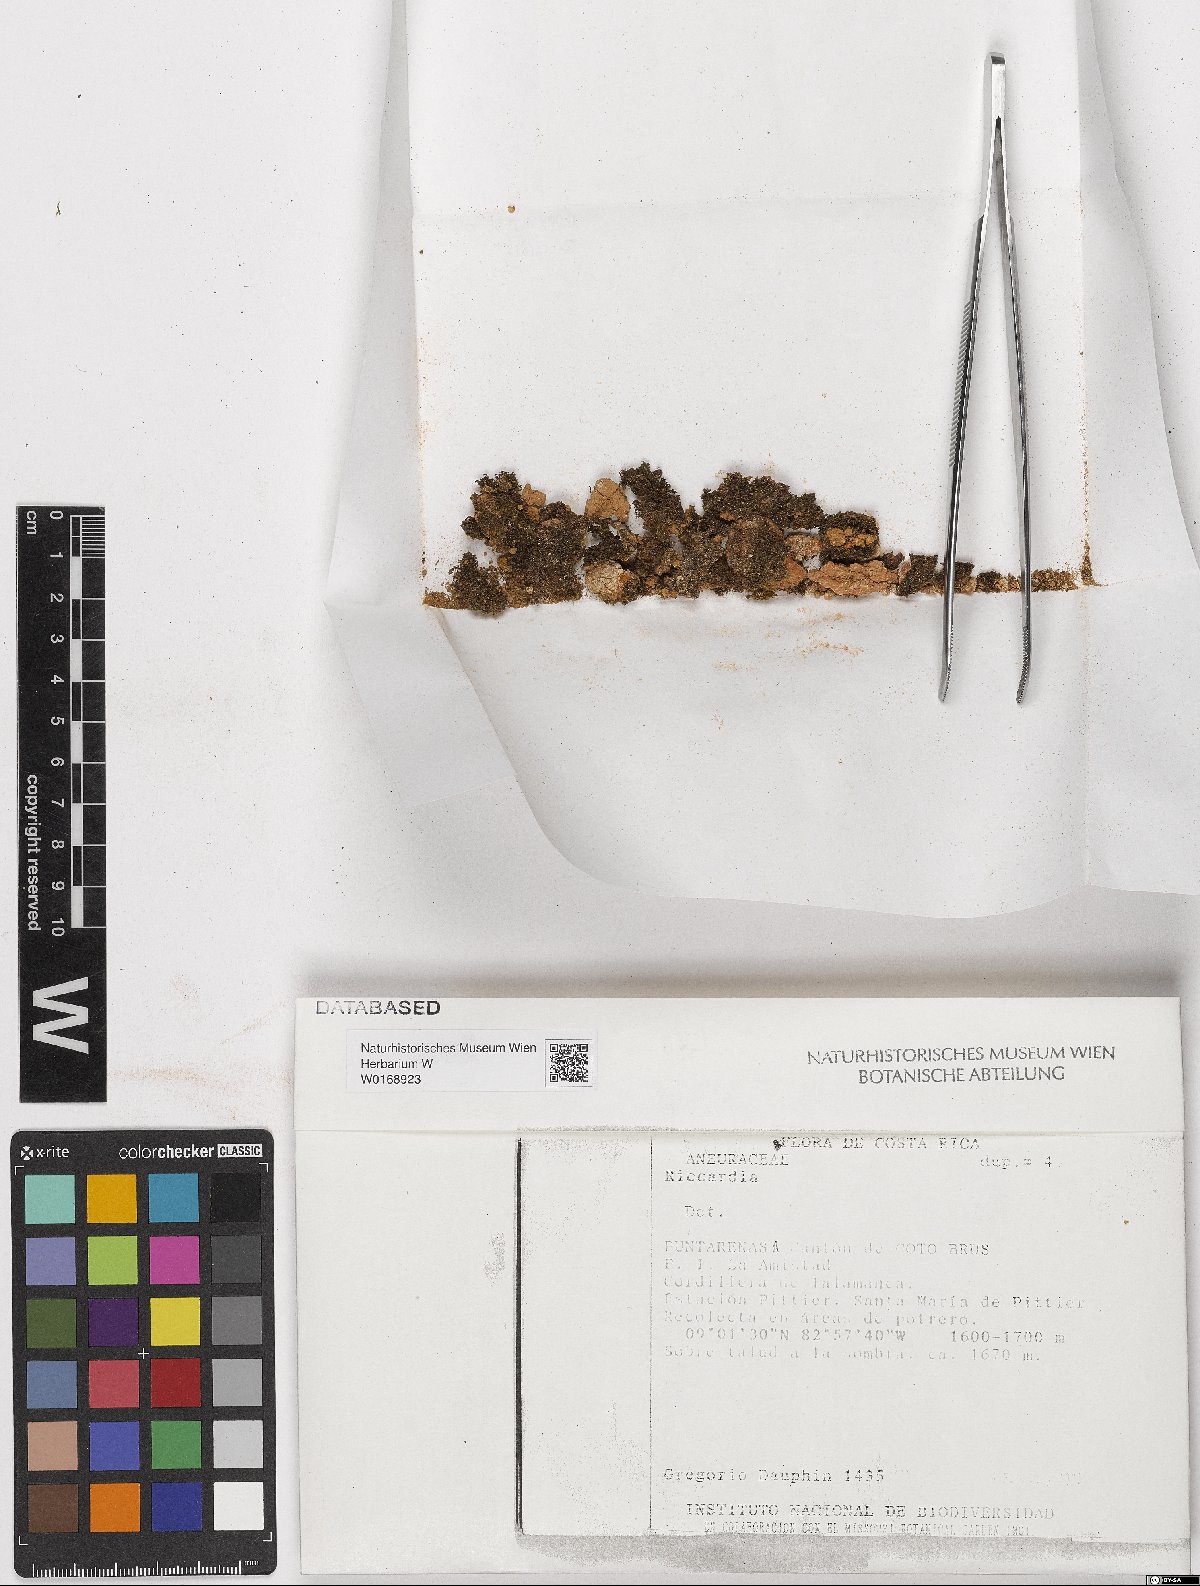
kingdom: Plantae
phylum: Marchantiophyta
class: Jungermanniopsida
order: Metzgeriales
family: Aneuraceae
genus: Riccardia
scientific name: Riccardia
